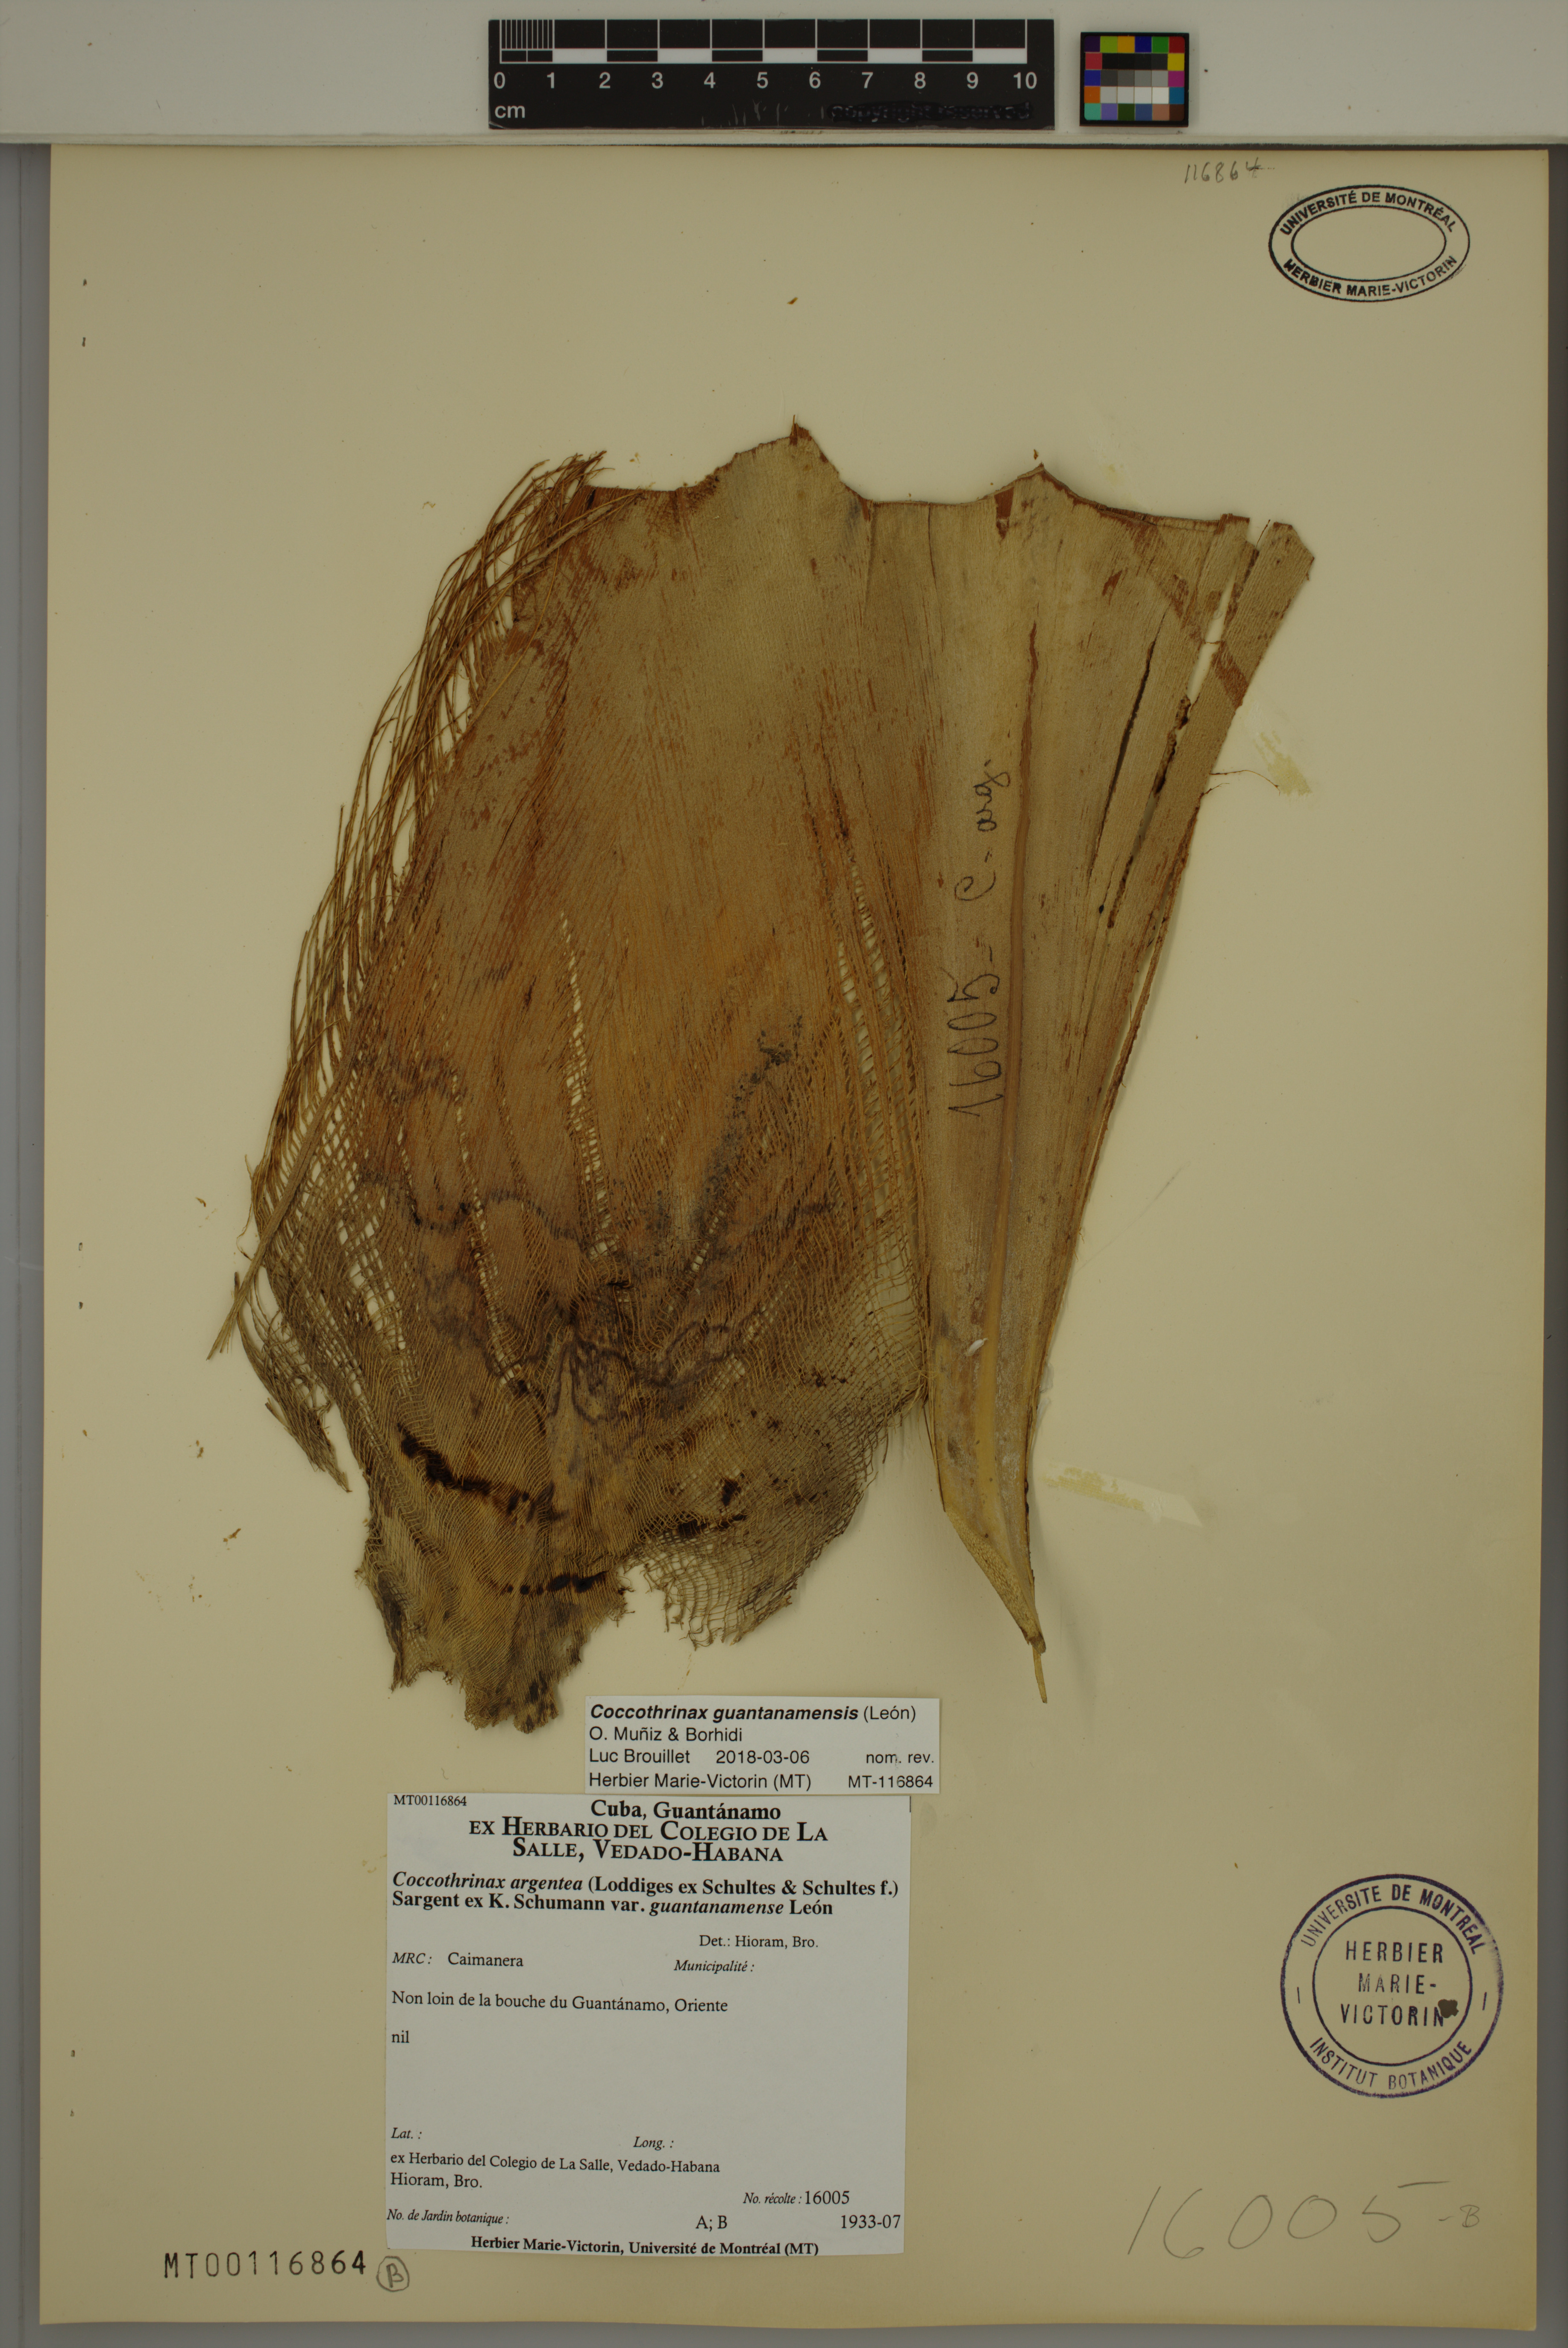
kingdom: Plantae
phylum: Tracheophyta
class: Liliopsida
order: Arecales
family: Arecaceae
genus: Coccothrinax
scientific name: Coccothrinax guantanamensis
